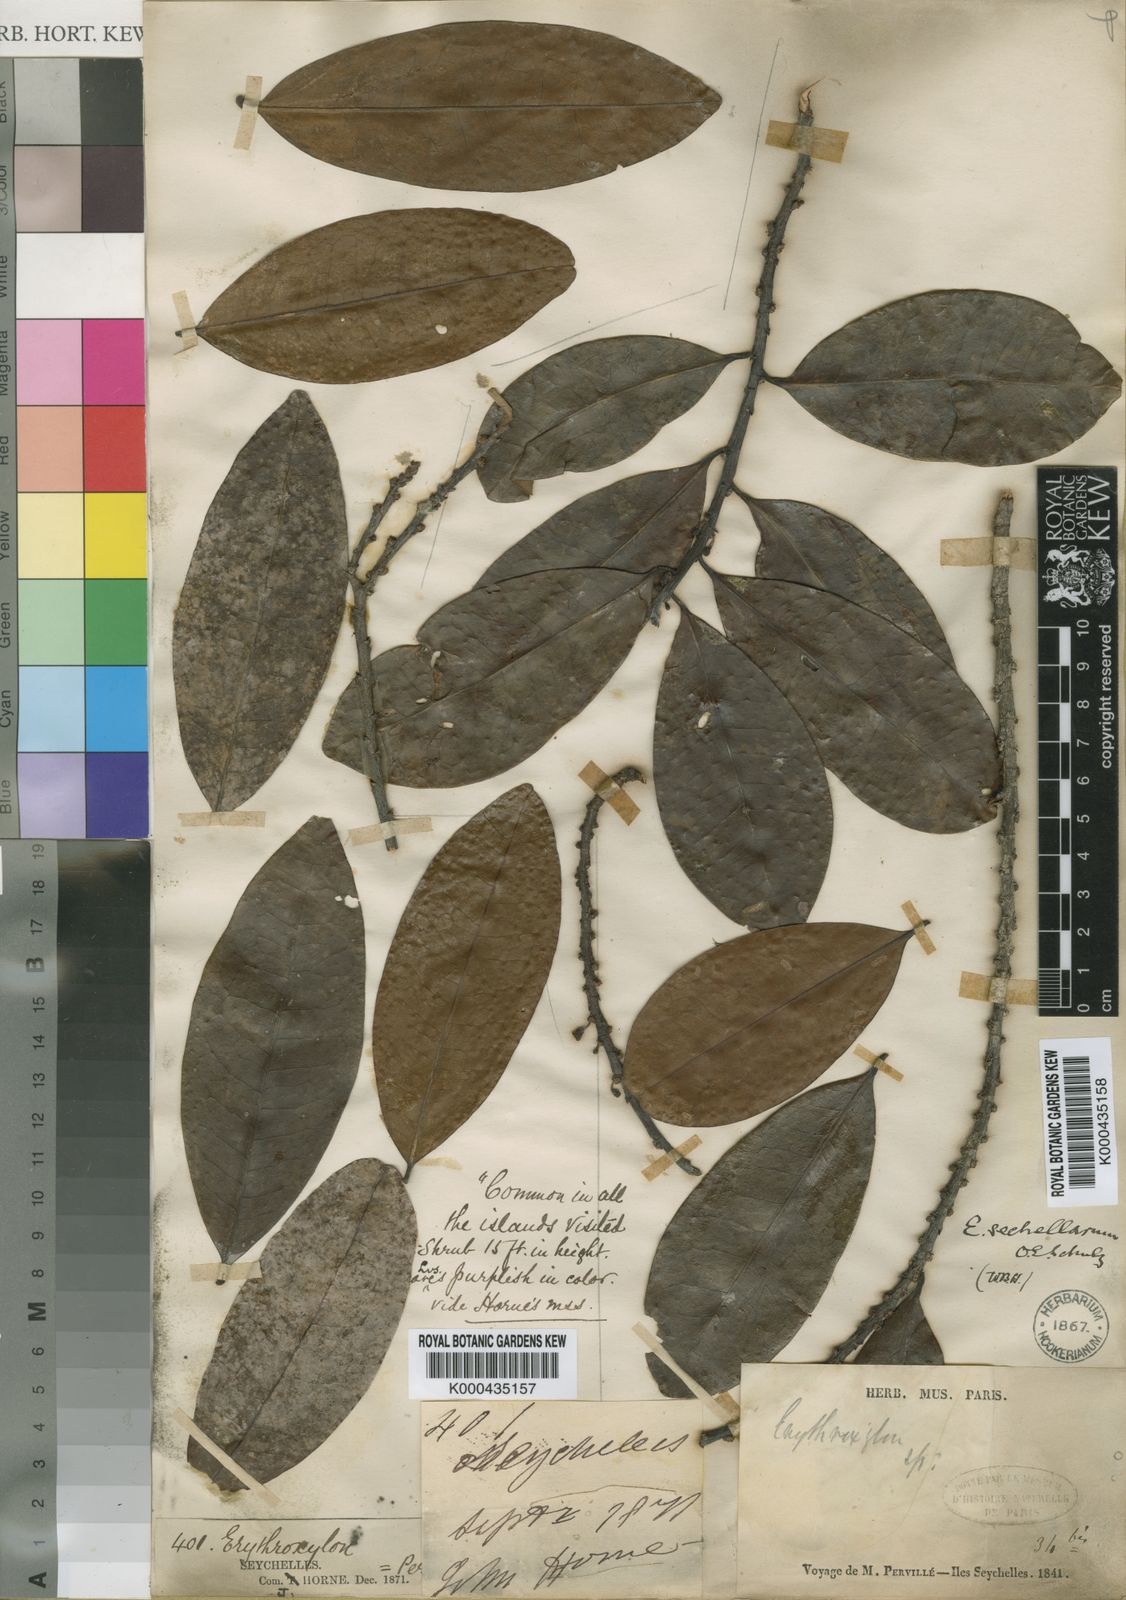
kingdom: Plantae
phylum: Tracheophyta
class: Magnoliopsida
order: Malpighiales
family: Erythroxylaceae
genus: Erythroxylum
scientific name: Erythroxylum sechellarum
